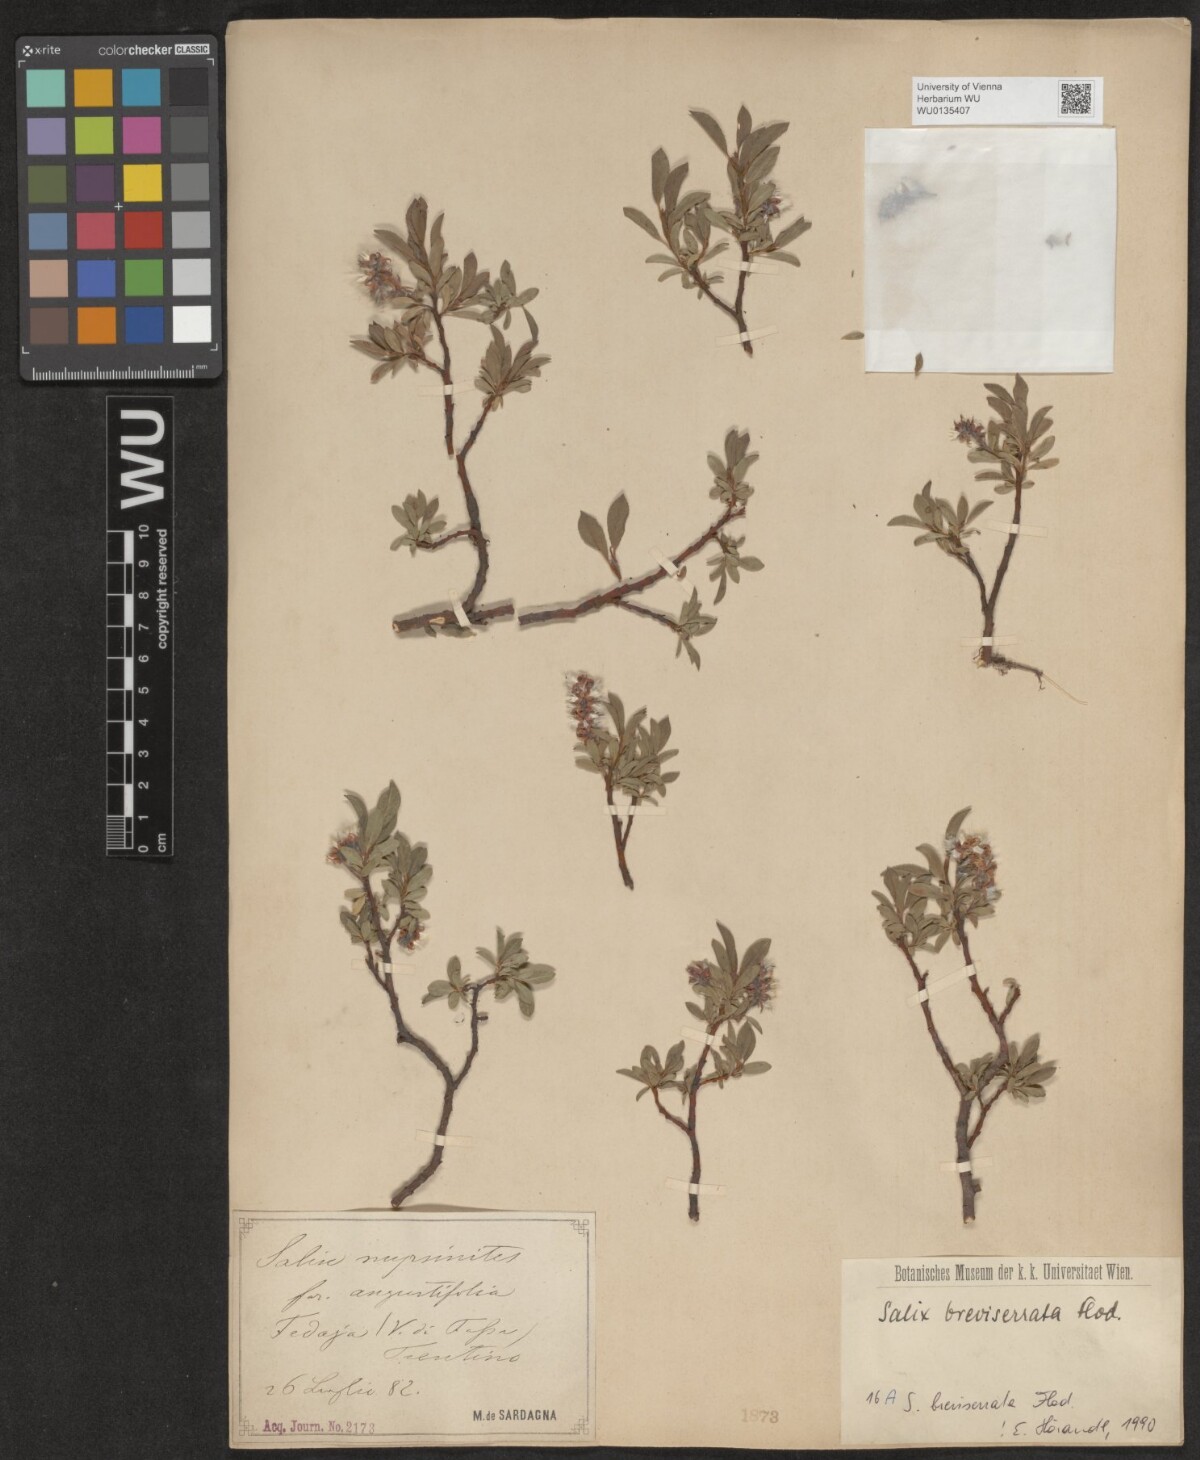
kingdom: Plantae
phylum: Tracheophyta
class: Magnoliopsida
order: Malpighiales
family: Salicaceae
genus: Salix
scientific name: Salix breviserrata
